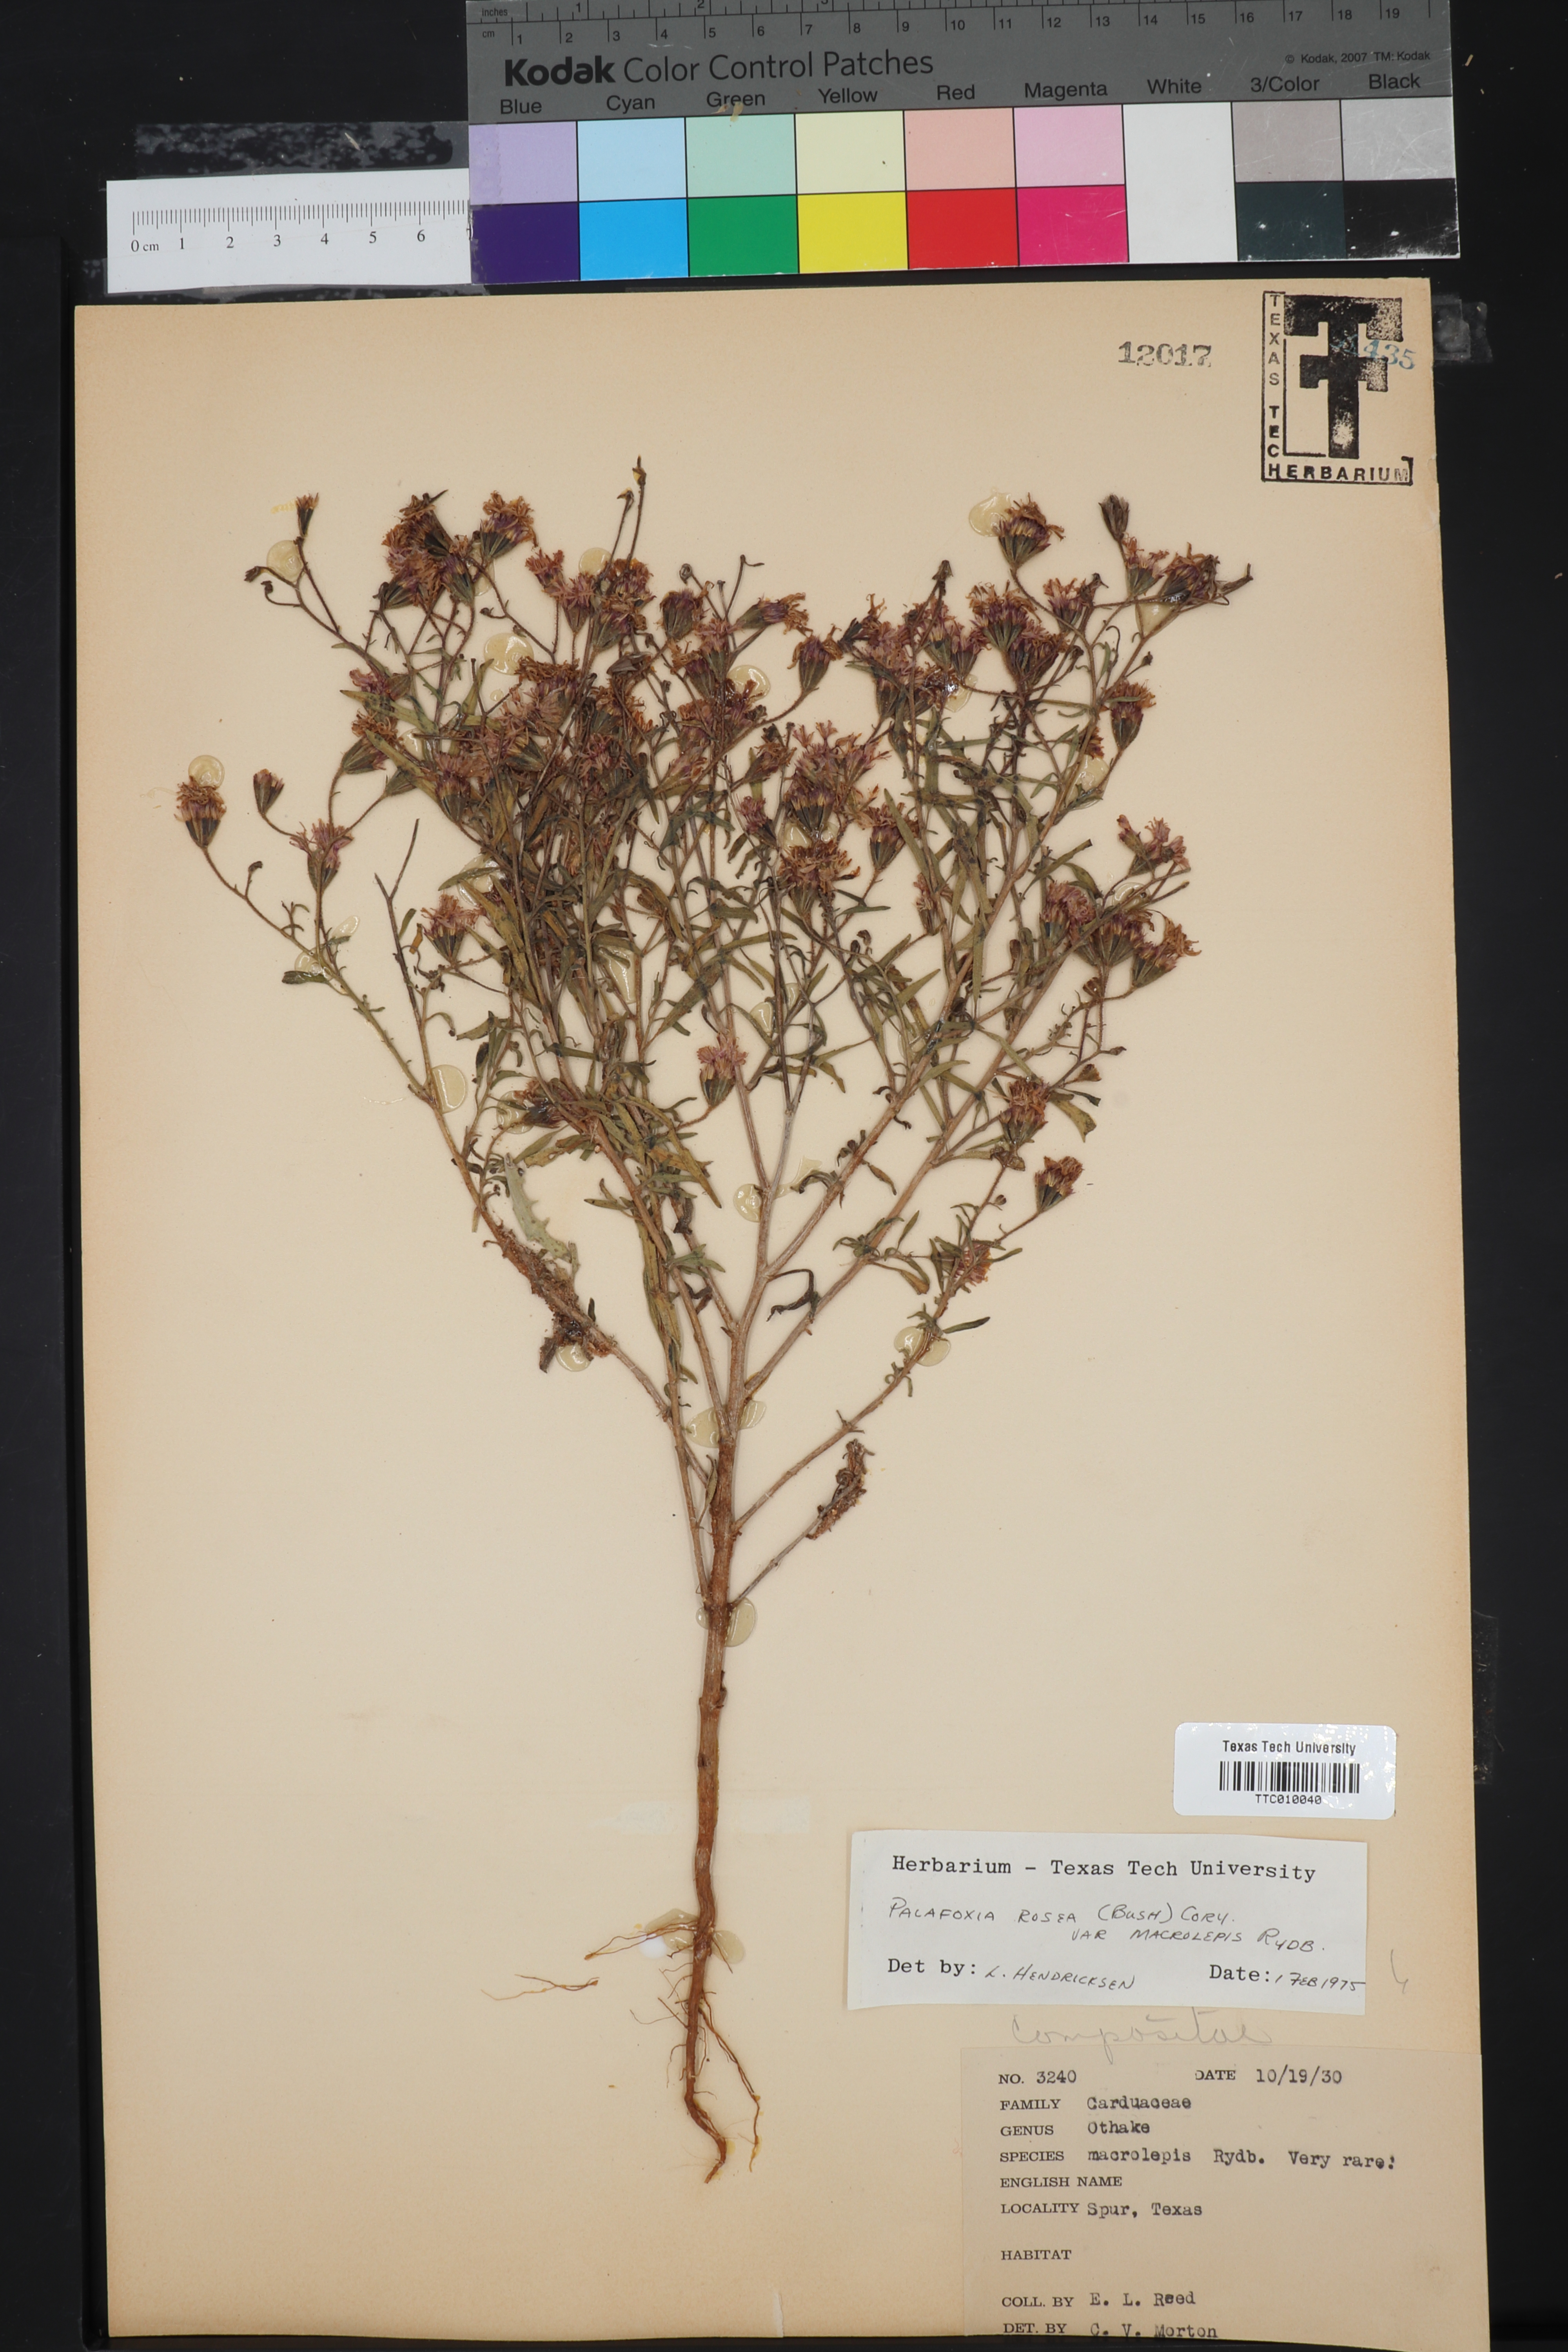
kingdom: Plantae
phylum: Tracheophyta
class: Magnoliopsida
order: Asterales
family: Asteraceae
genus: Palafoxia
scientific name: Palafoxia rosea
